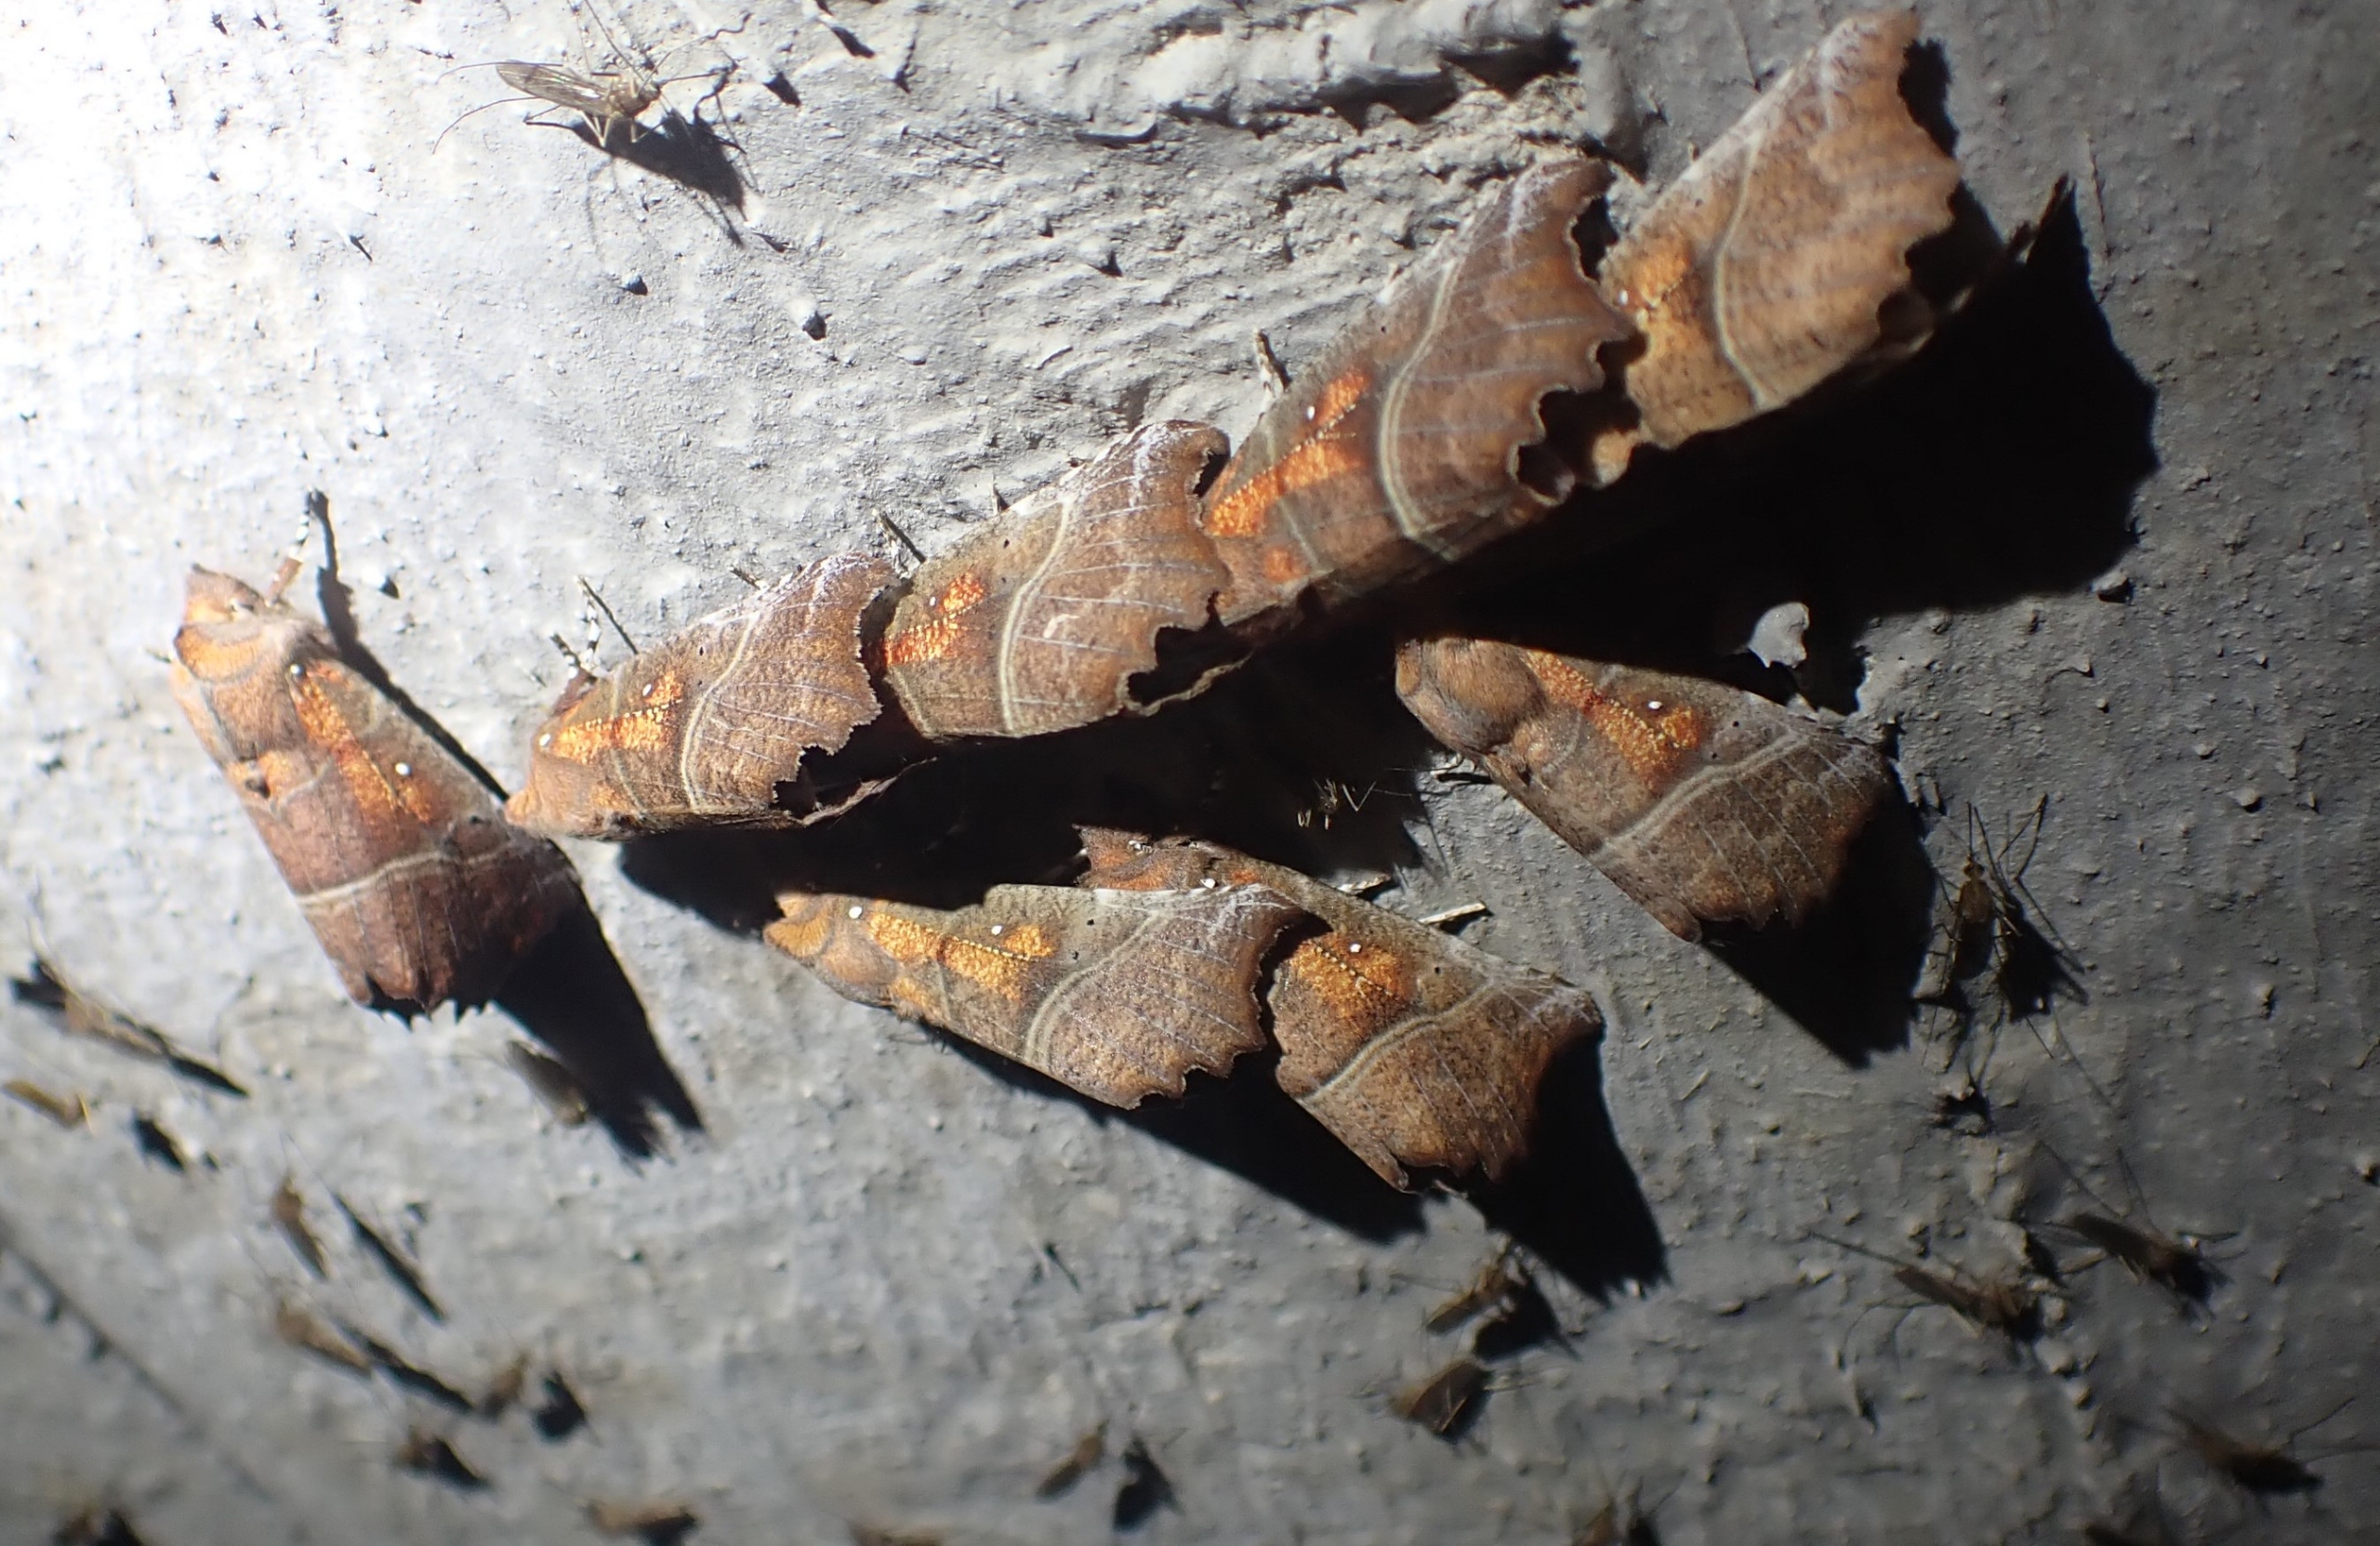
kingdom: Animalia
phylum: Arthropoda
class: Insecta
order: Lepidoptera
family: Erebidae
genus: Scoliopteryx
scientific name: Scoliopteryx libatrix
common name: Husmoderugle
